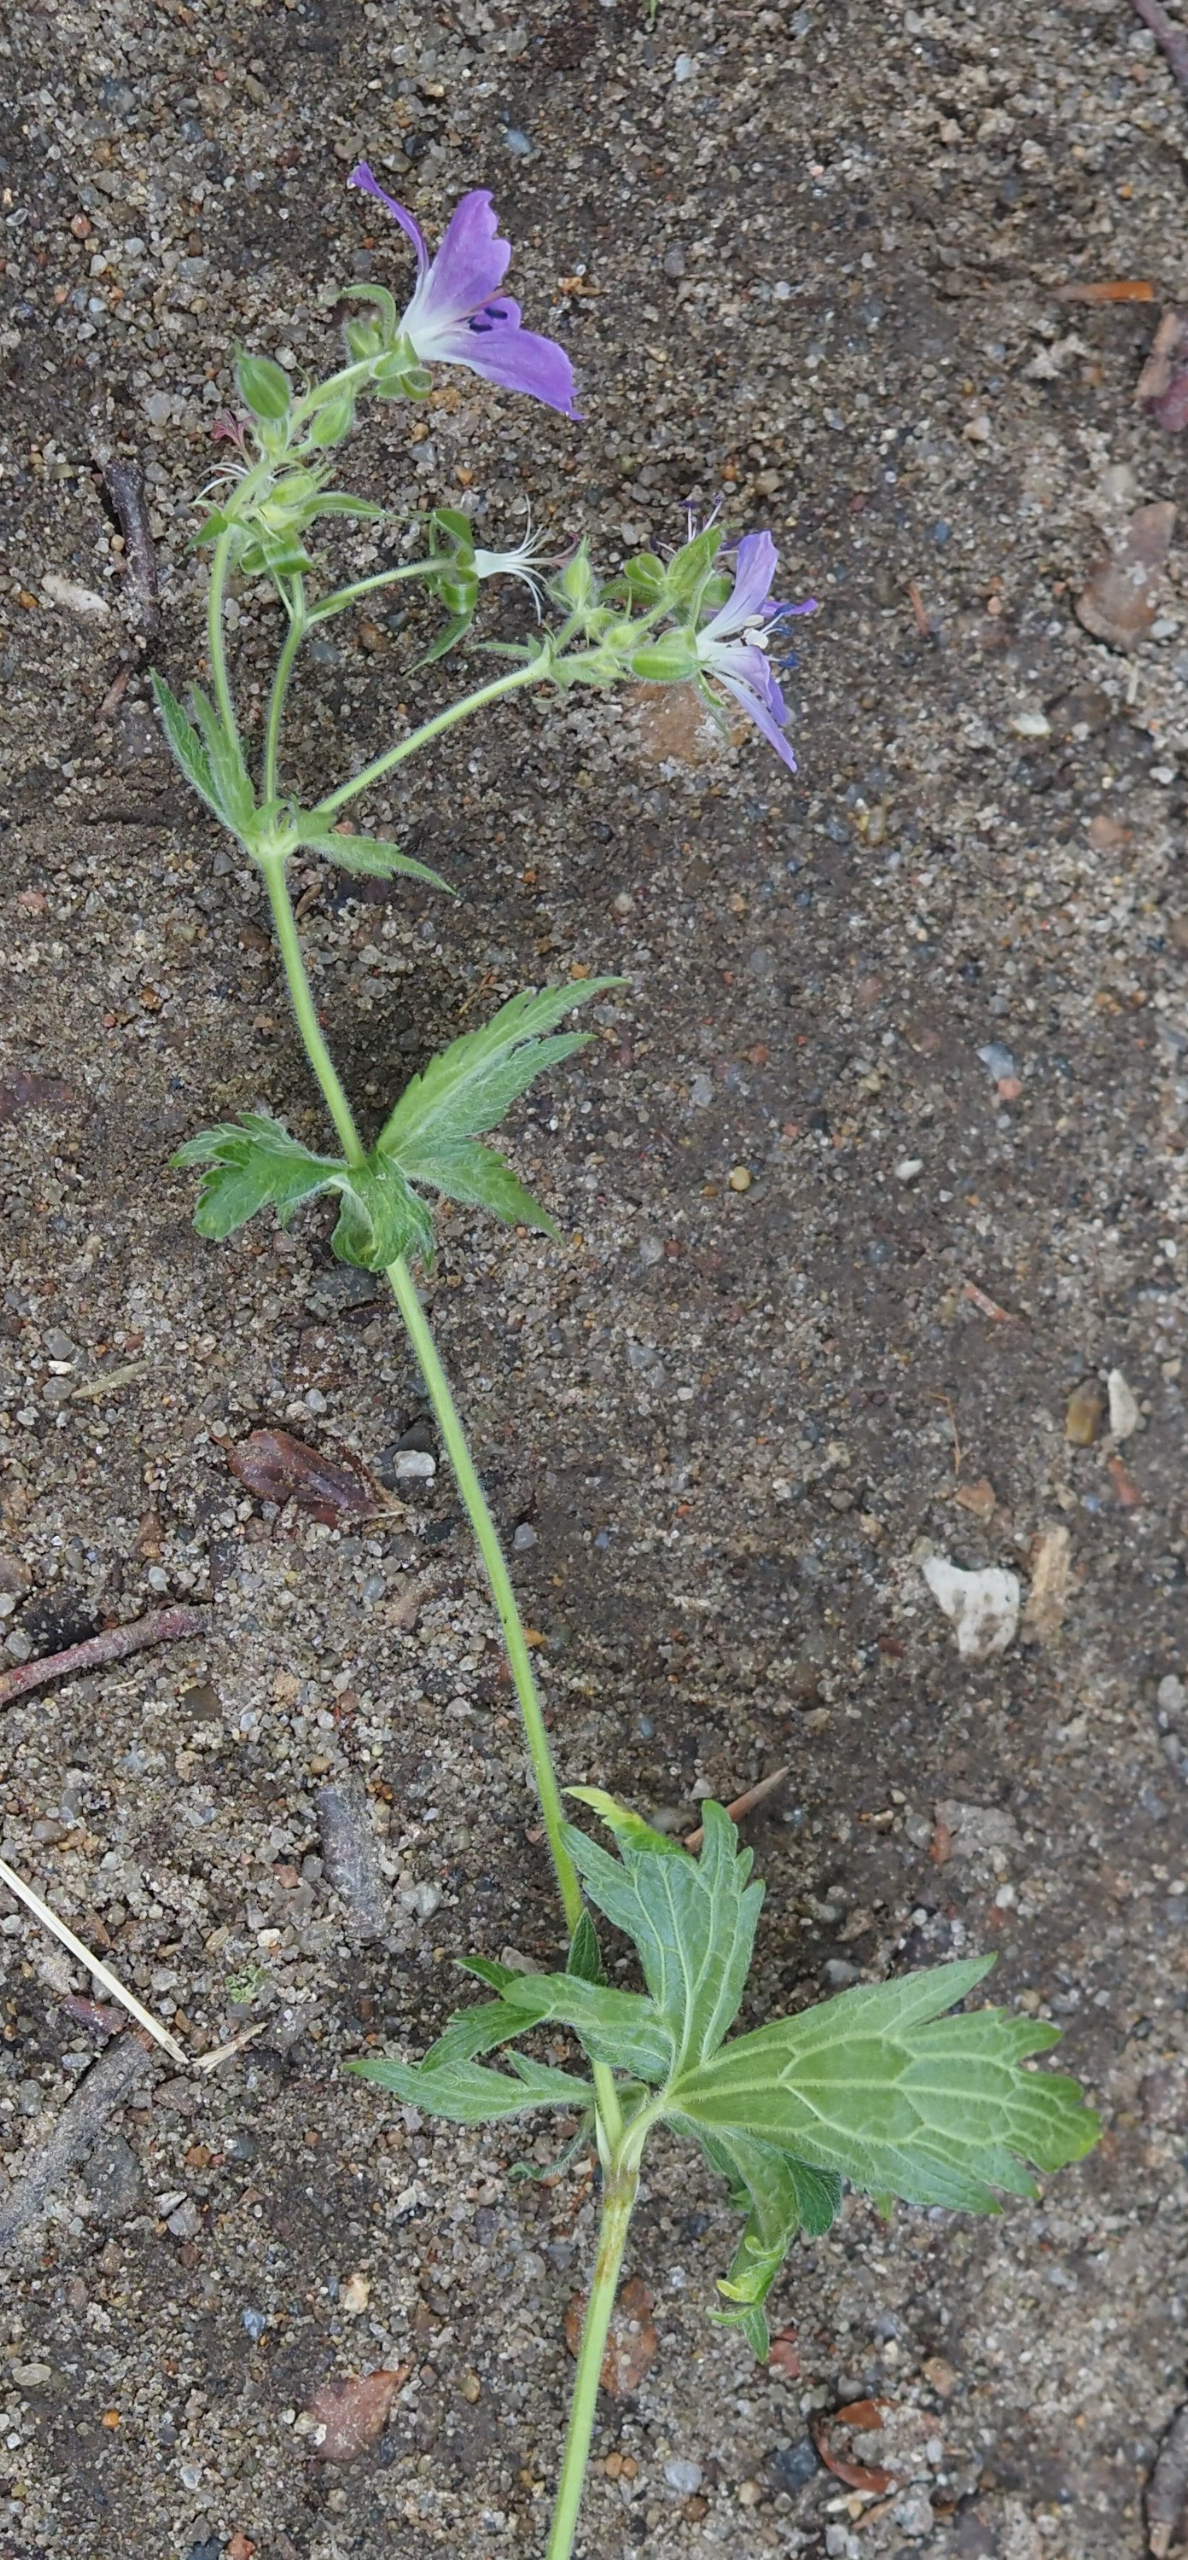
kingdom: Plantae
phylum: Tracheophyta
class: Magnoliopsida
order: Geraniales
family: Geraniaceae
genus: Geranium
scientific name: Geranium sylvaticum
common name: Skov-storkenæb
